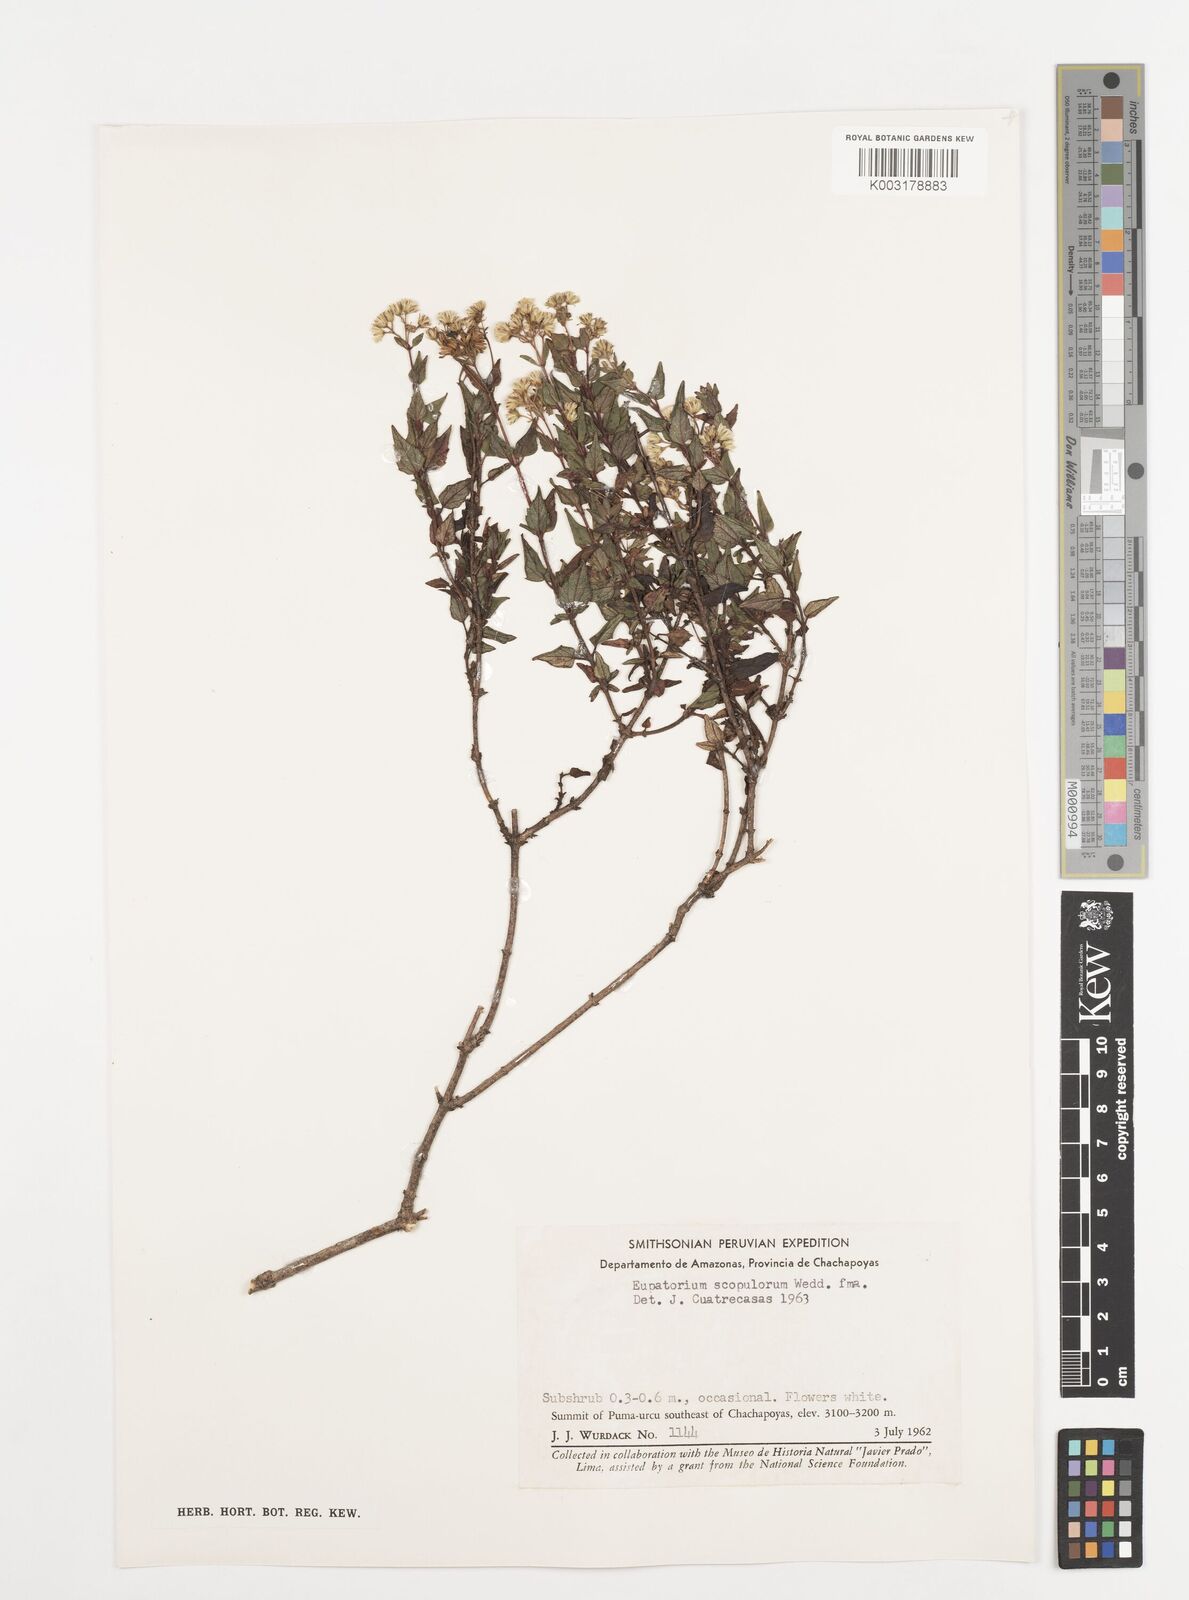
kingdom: Plantae
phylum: Tracheophyta
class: Magnoliopsida
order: Asterales
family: Asteraceae
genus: Ageratina
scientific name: Ageratina scopulorum
